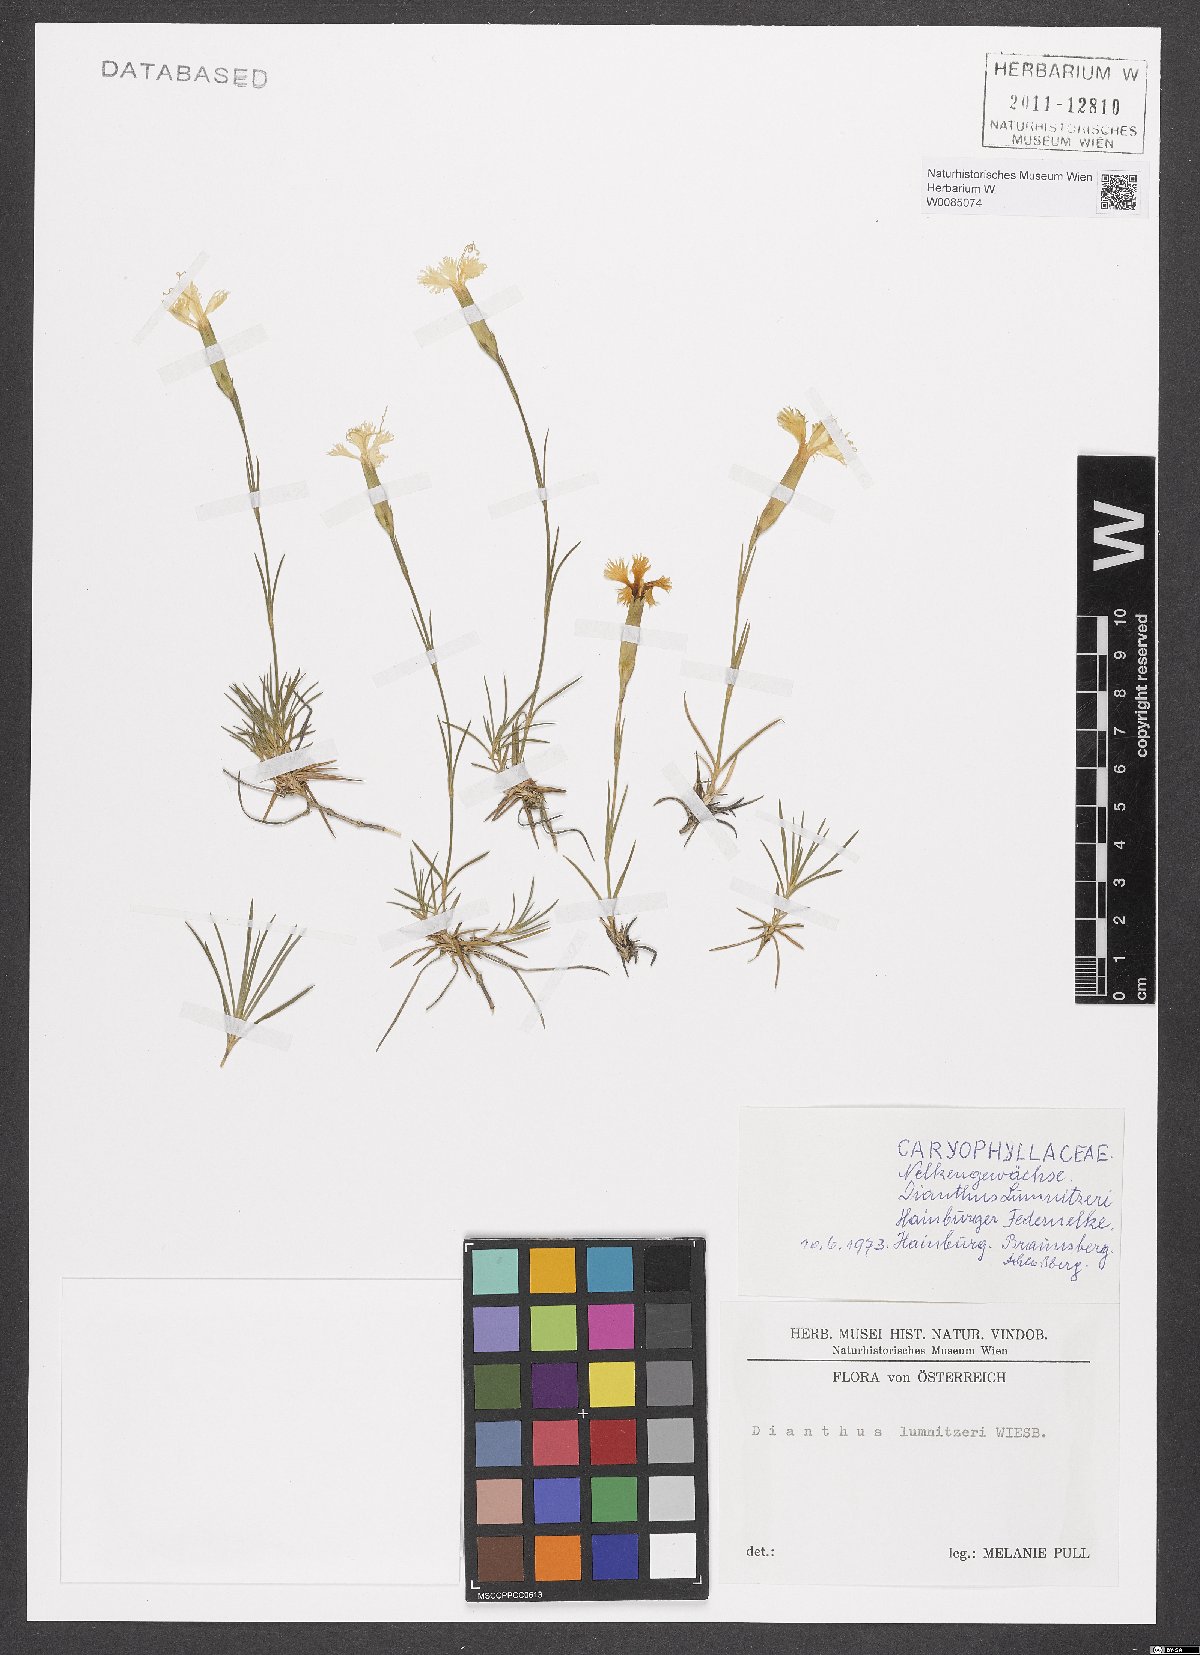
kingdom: Plantae
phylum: Tracheophyta
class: Magnoliopsida
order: Caryophyllales
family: Caryophyllaceae
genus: Dianthus
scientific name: Dianthus praecox
